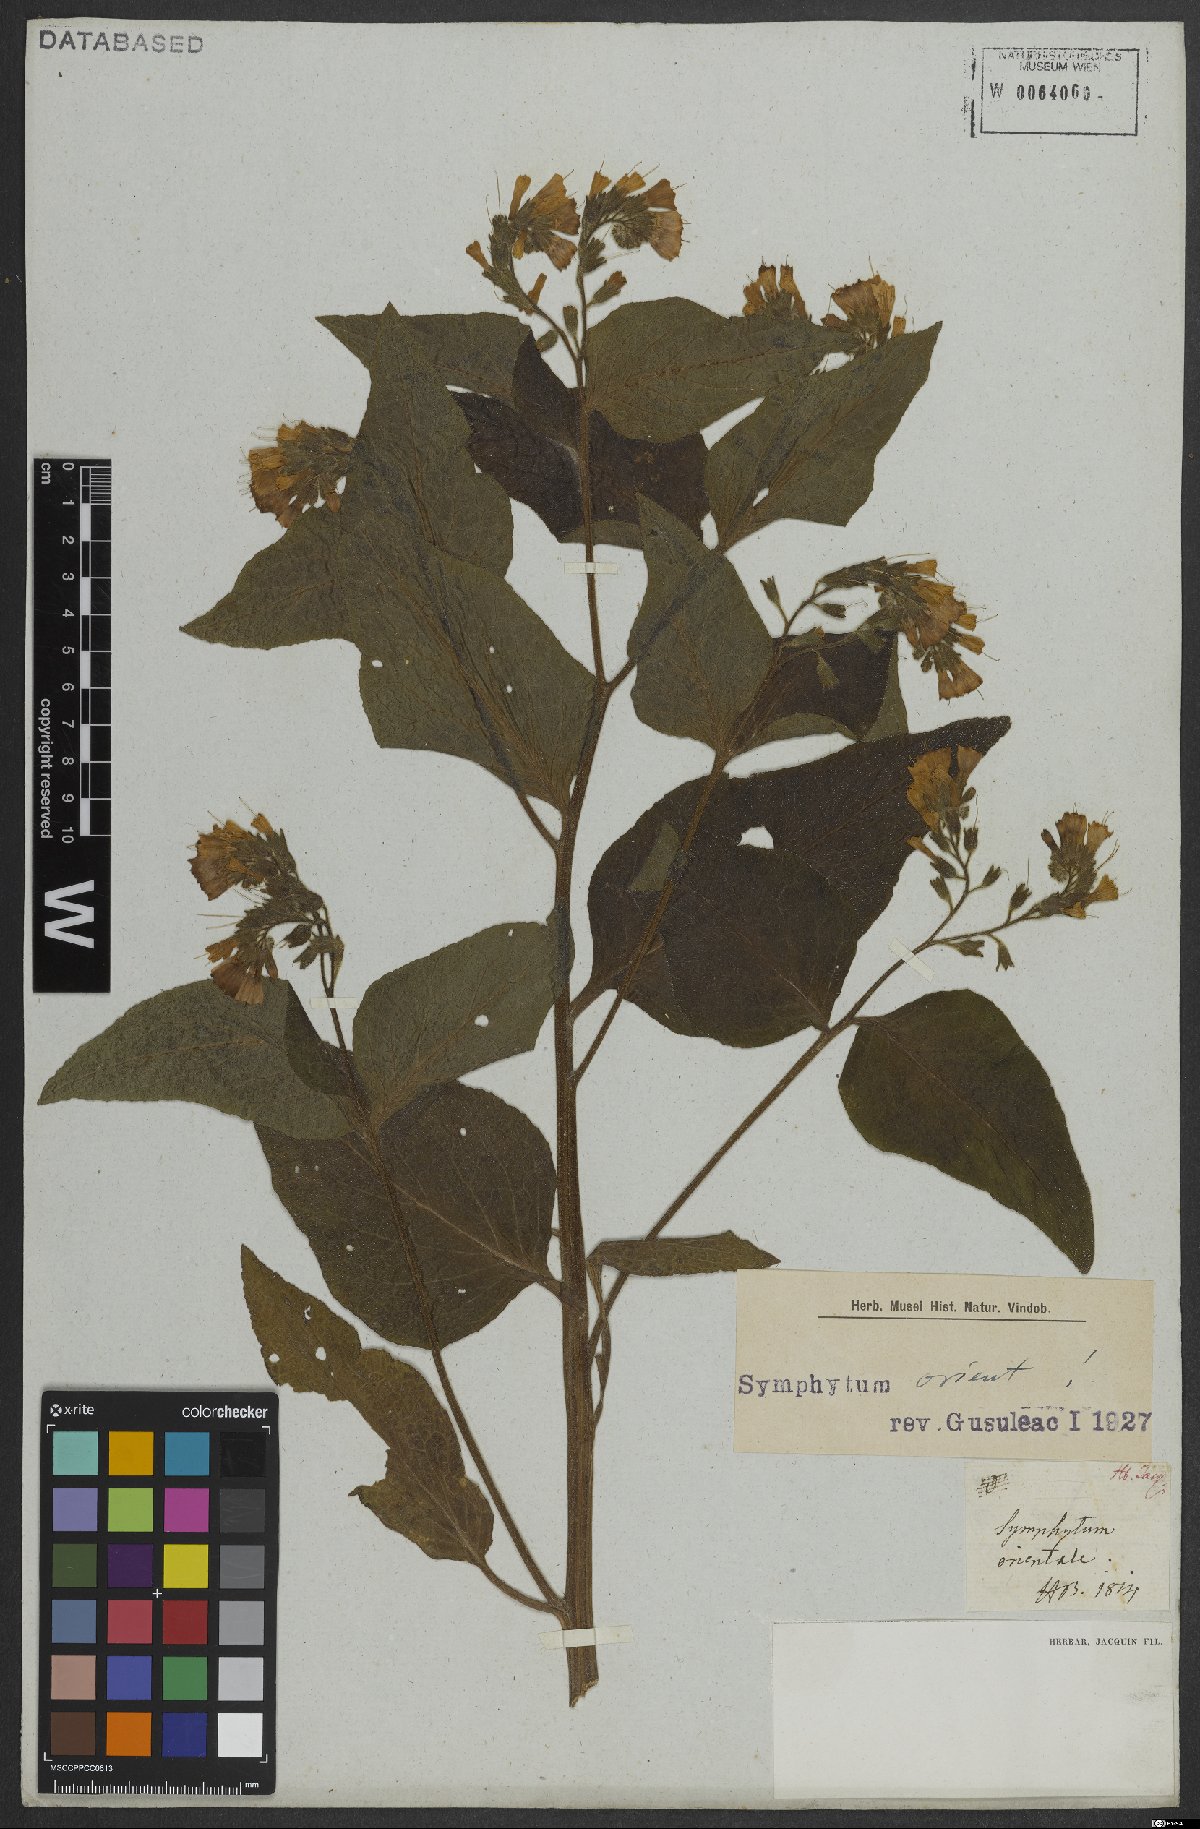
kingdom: Plantae
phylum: Tracheophyta
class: Magnoliopsida
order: Boraginales
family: Boraginaceae
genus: Symphytum
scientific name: Symphytum orientale
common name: White comfrey
